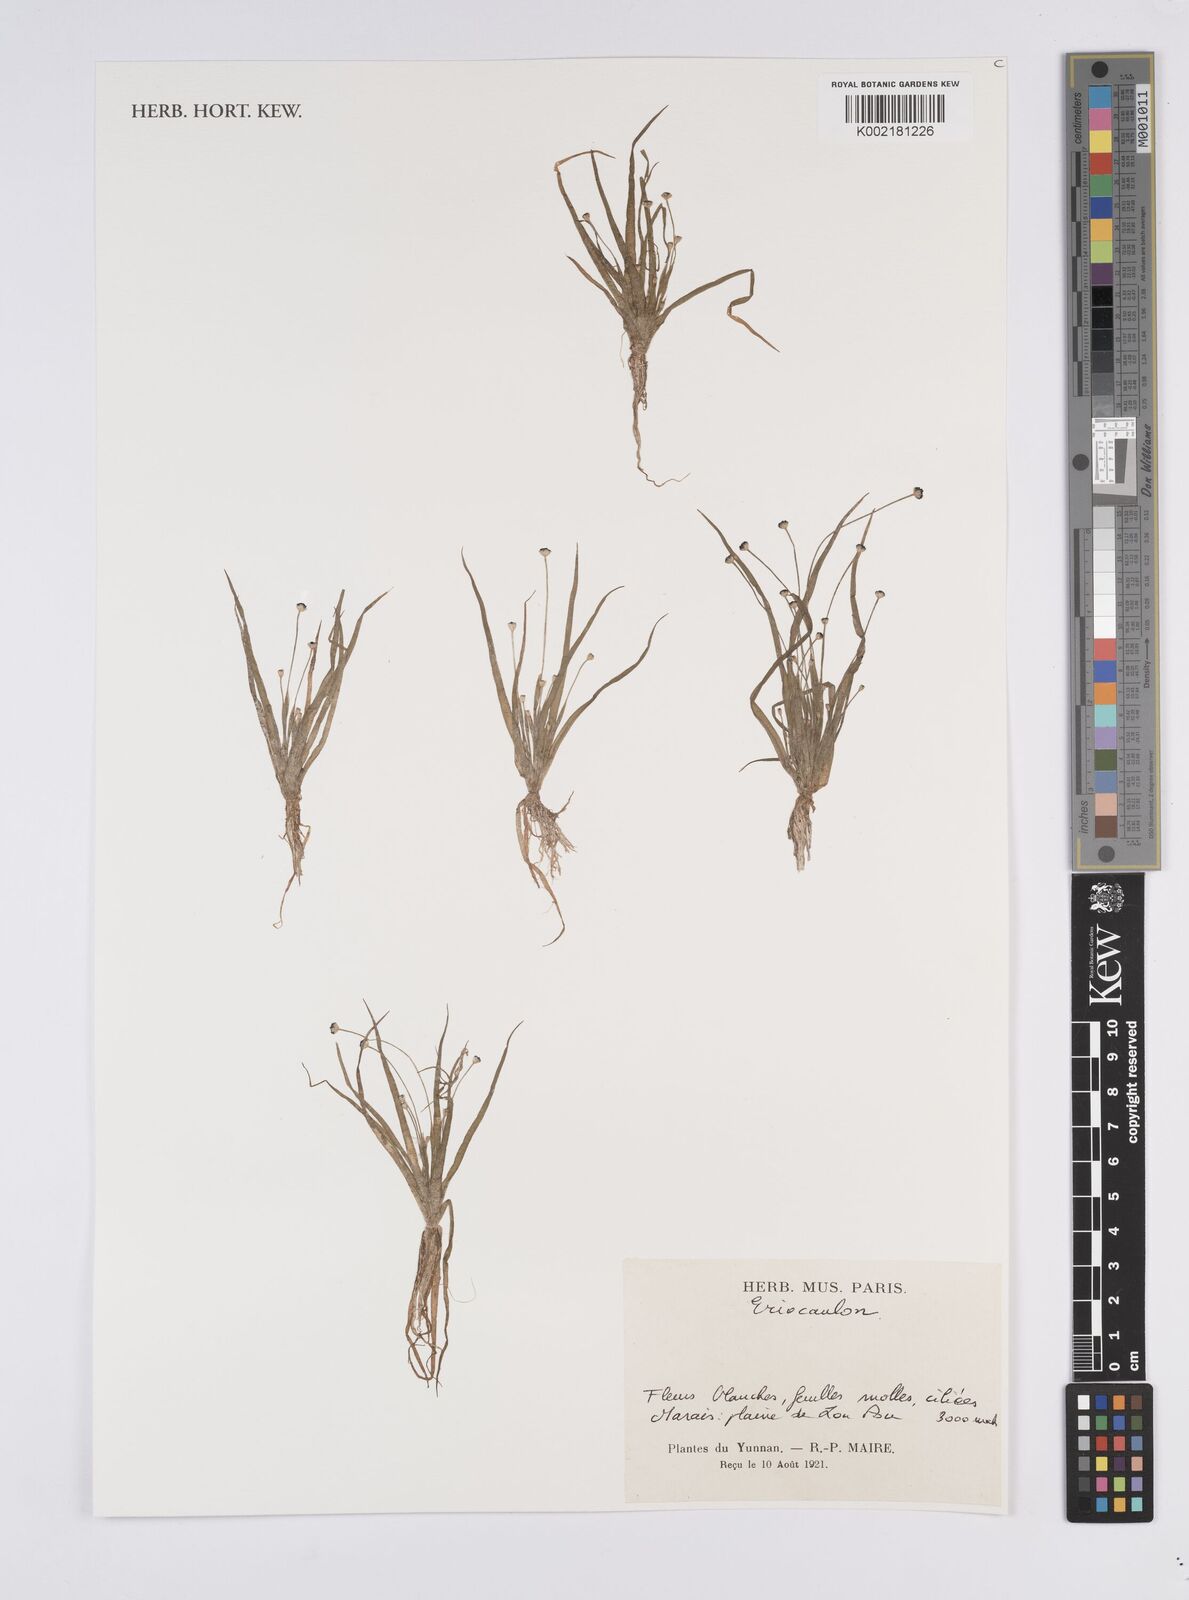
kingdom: Plantae
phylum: Tracheophyta
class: Liliopsida
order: Poales
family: Eriocaulaceae
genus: Eriocaulon
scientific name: Eriocaulon
